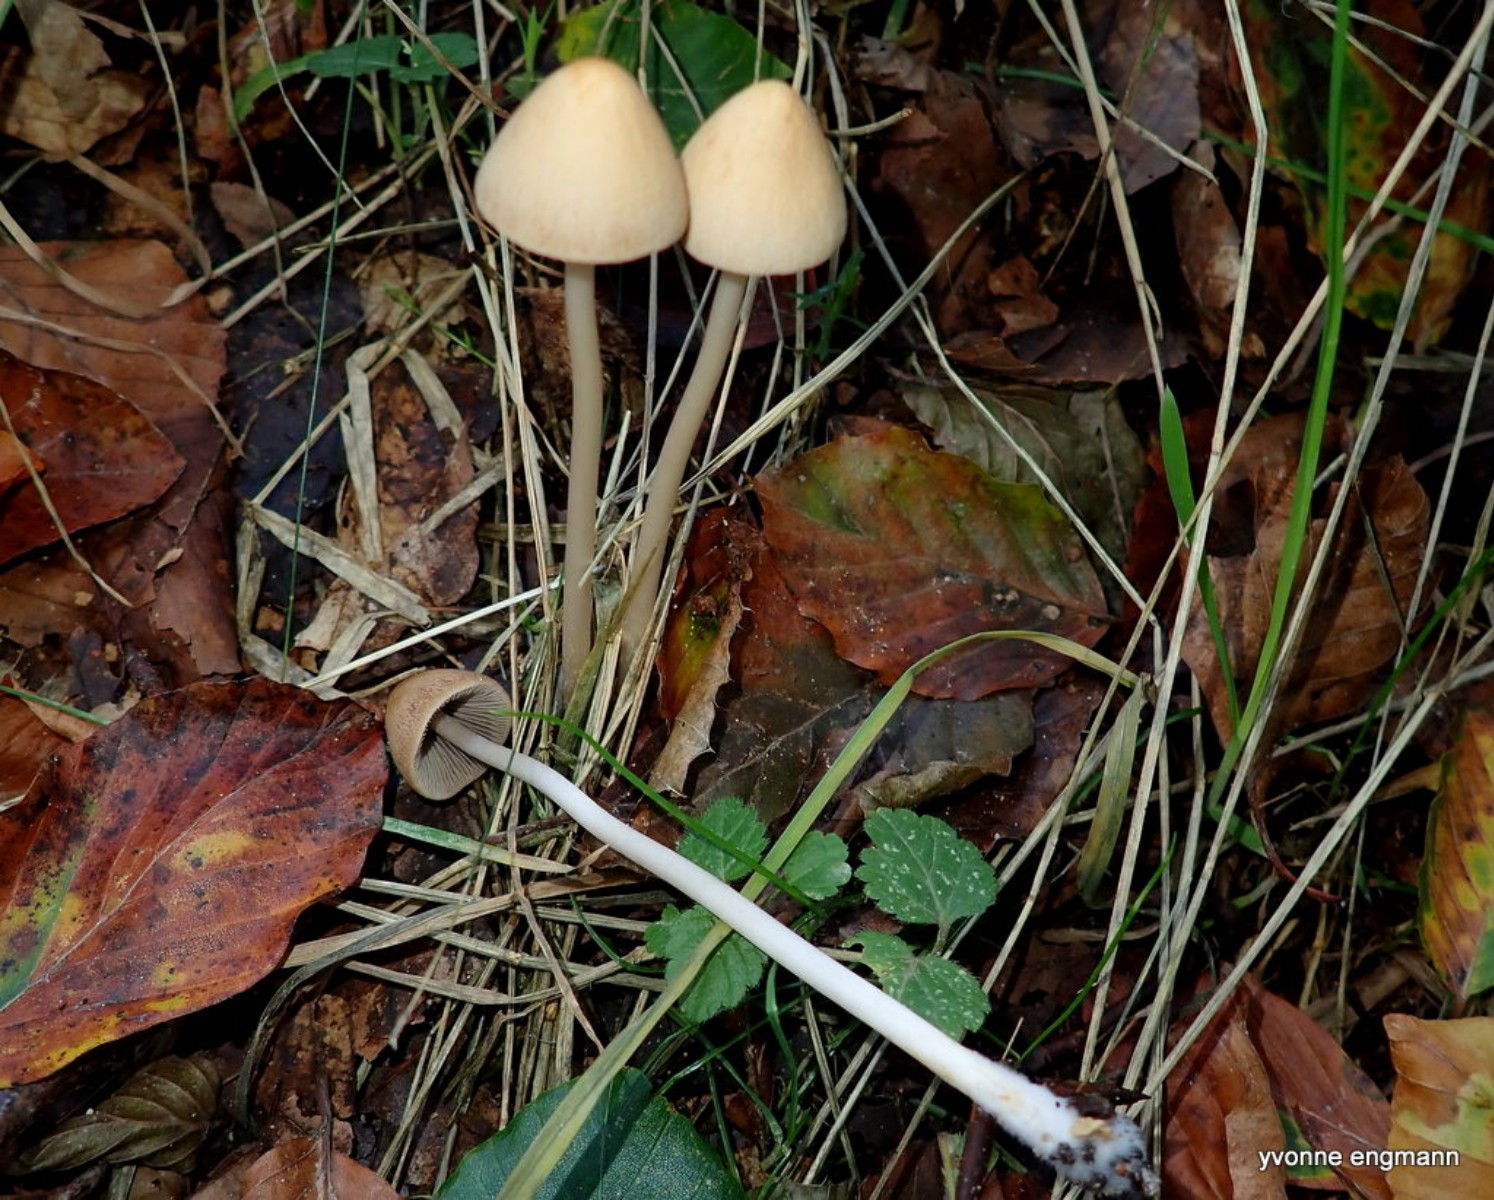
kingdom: Fungi
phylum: Basidiomycota
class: Agaricomycetes
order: Agaricales
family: Psathyrellaceae
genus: Parasola
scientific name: Parasola conopilea
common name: kegle-hjulhat
